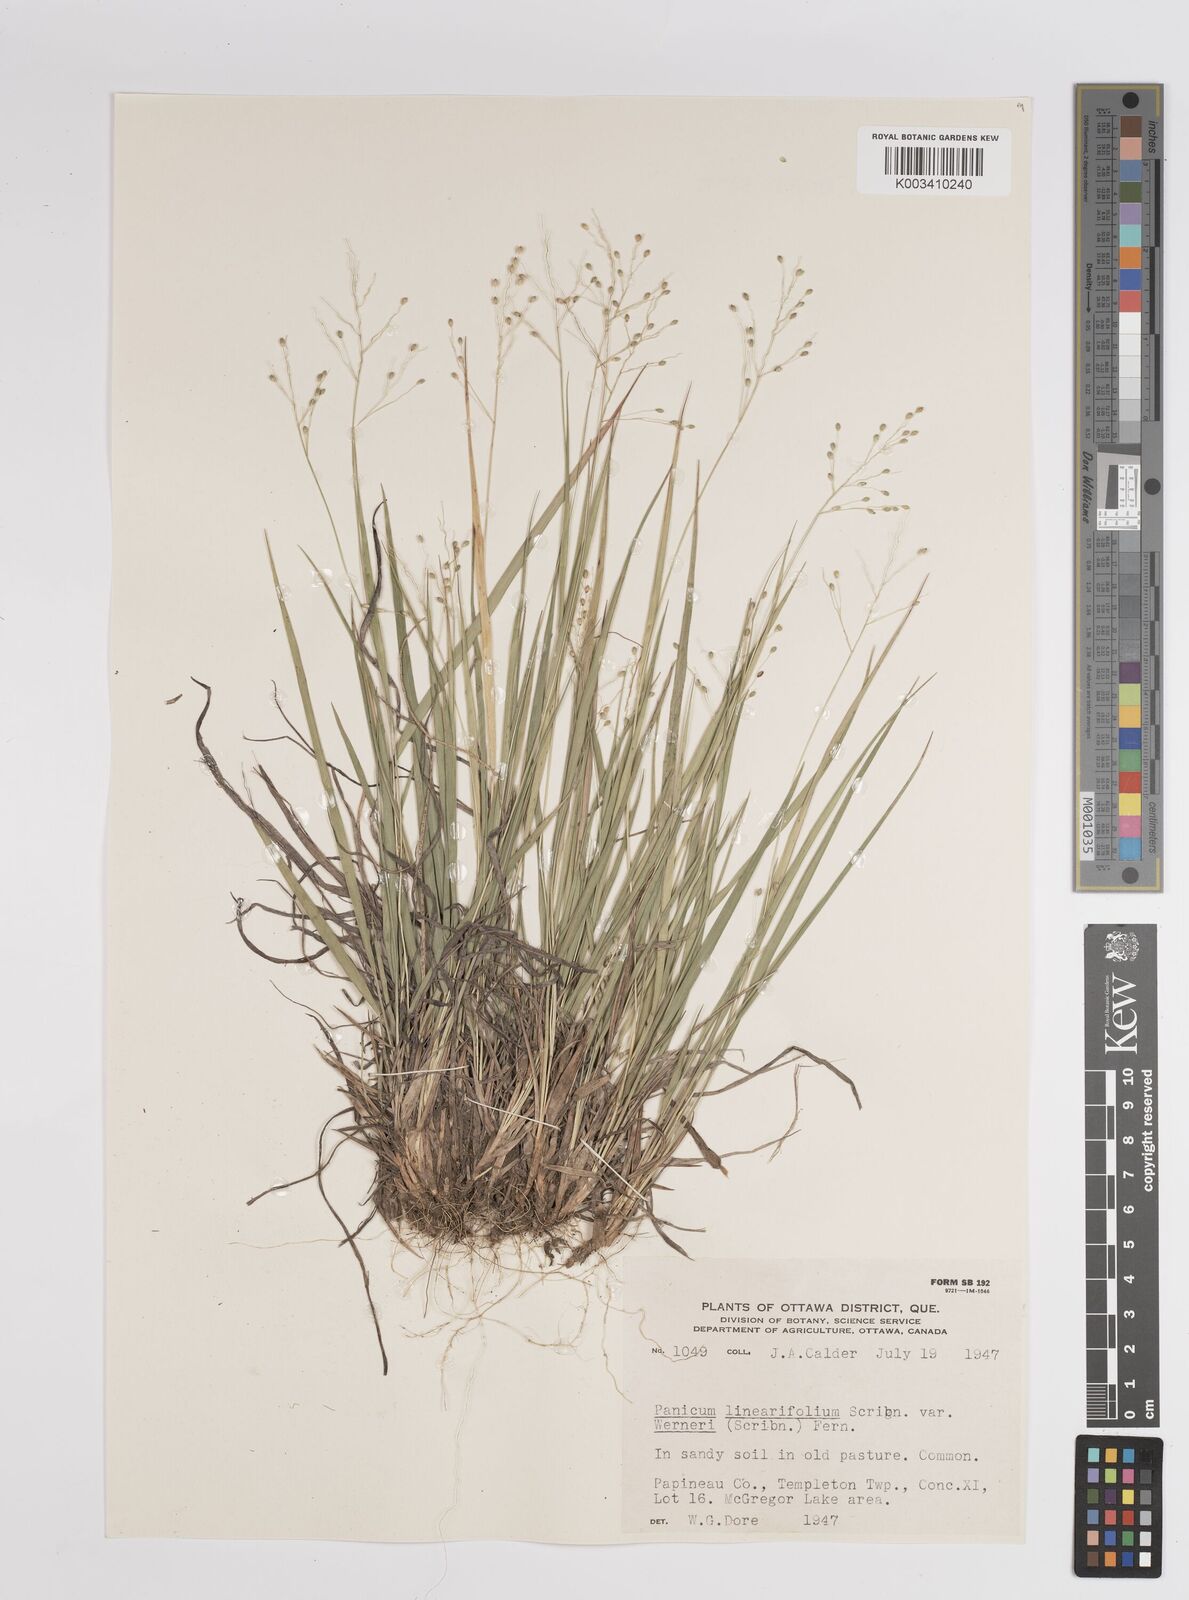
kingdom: Plantae
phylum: Tracheophyta
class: Liliopsida
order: Poales
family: Poaceae
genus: Dichanthelium
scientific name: Dichanthelium linearifolium
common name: Linear-leaved panicgrass
